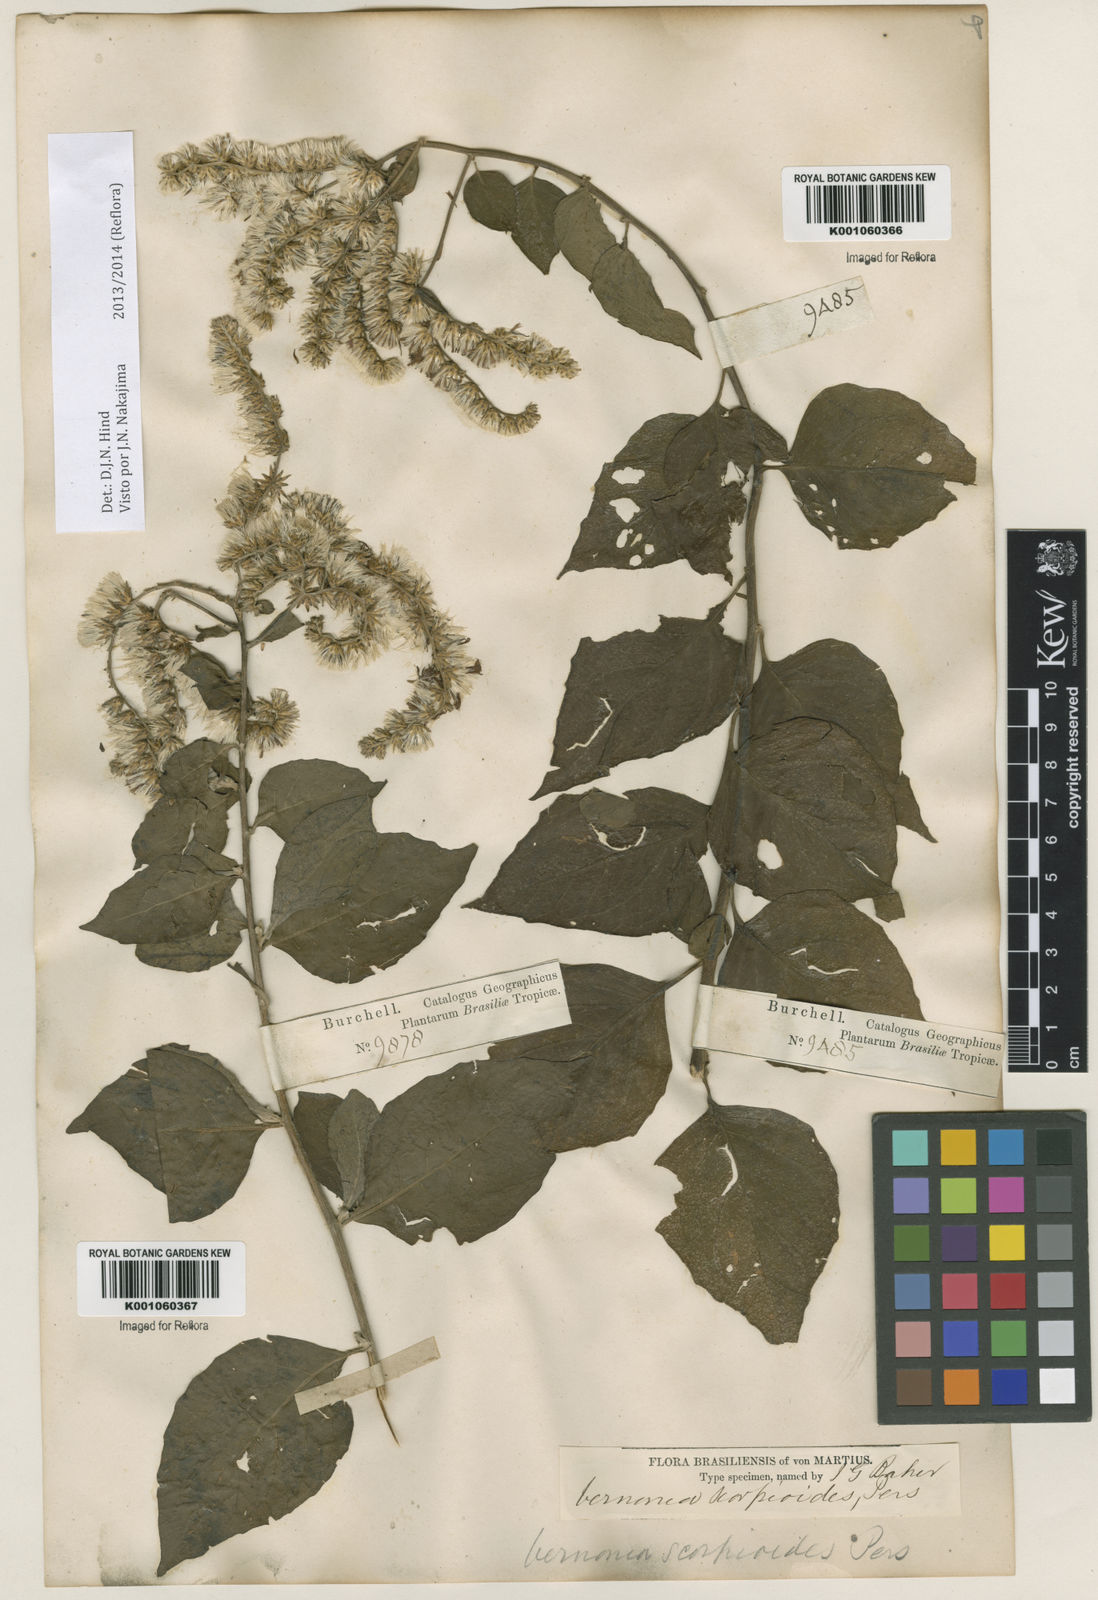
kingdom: Plantae
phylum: Tracheophyta
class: Magnoliopsida
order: Asterales
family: Asteraceae
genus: Cyrtocymura
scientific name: Cyrtocymura scorpioides
